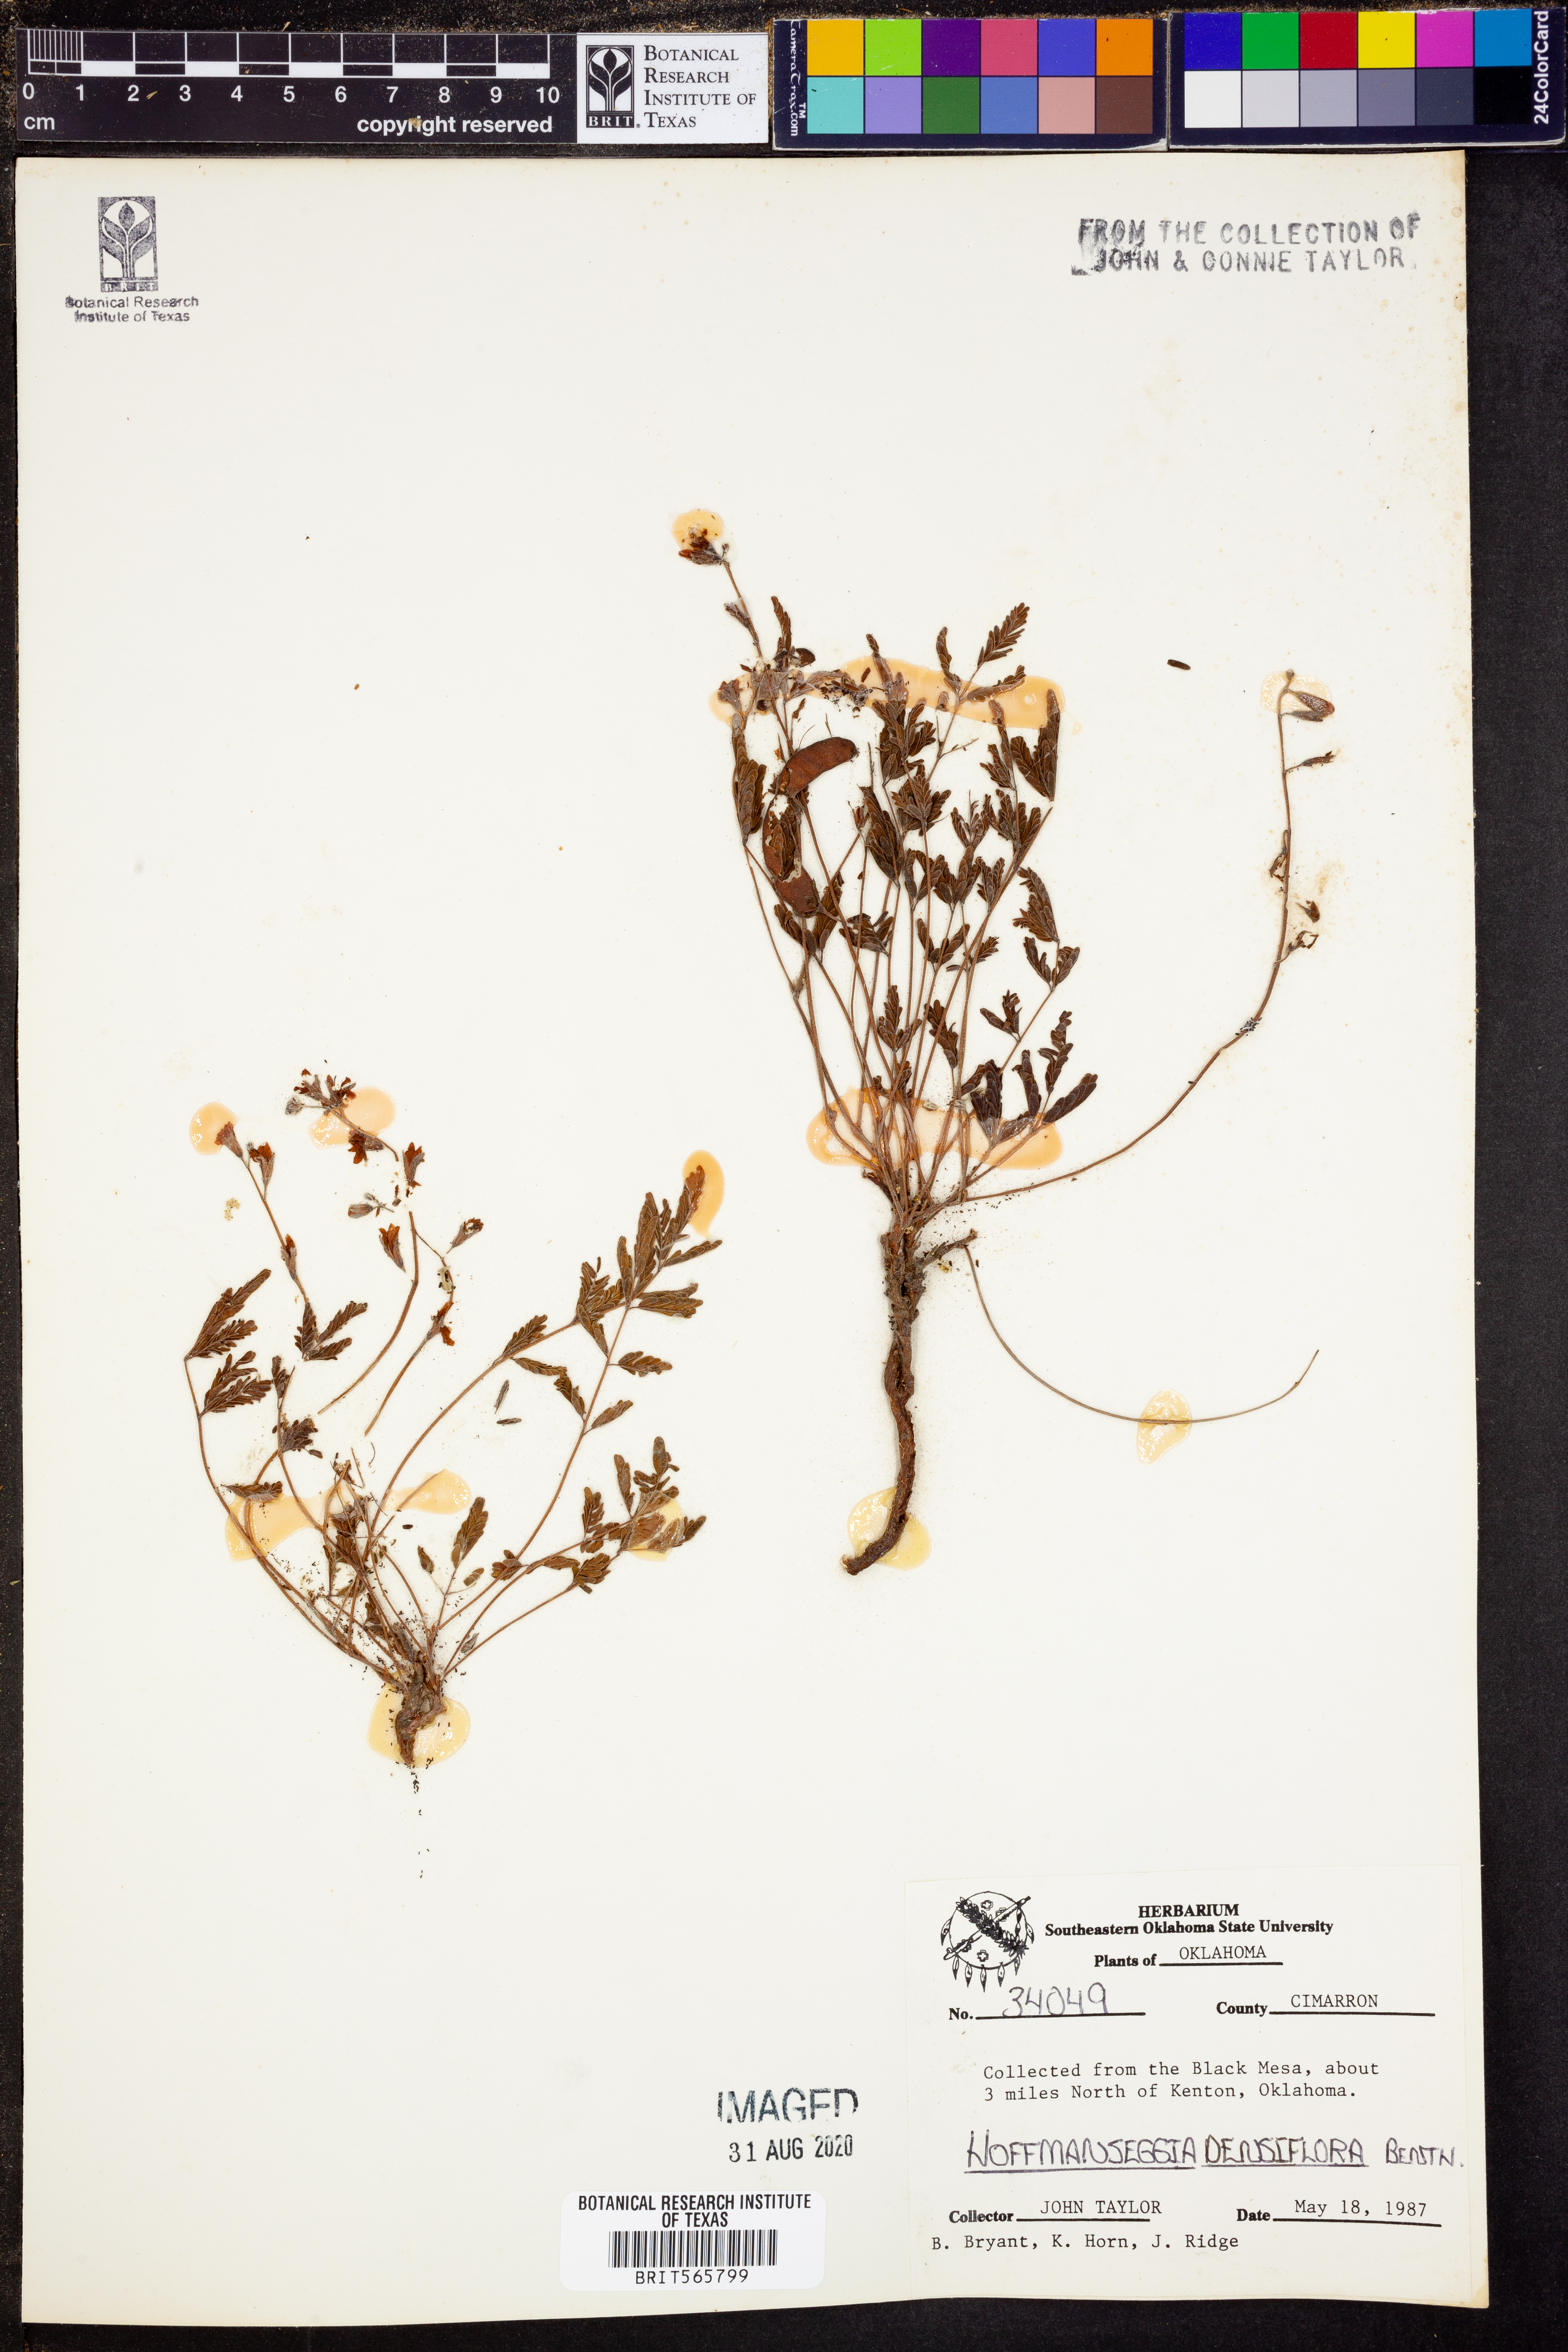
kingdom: Plantae
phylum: Tracheophyta
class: Magnoliopsida
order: Fabales
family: Fabaceae
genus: Hoffmannseggia
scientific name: Hoffmannseggia glauca
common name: Pignut
